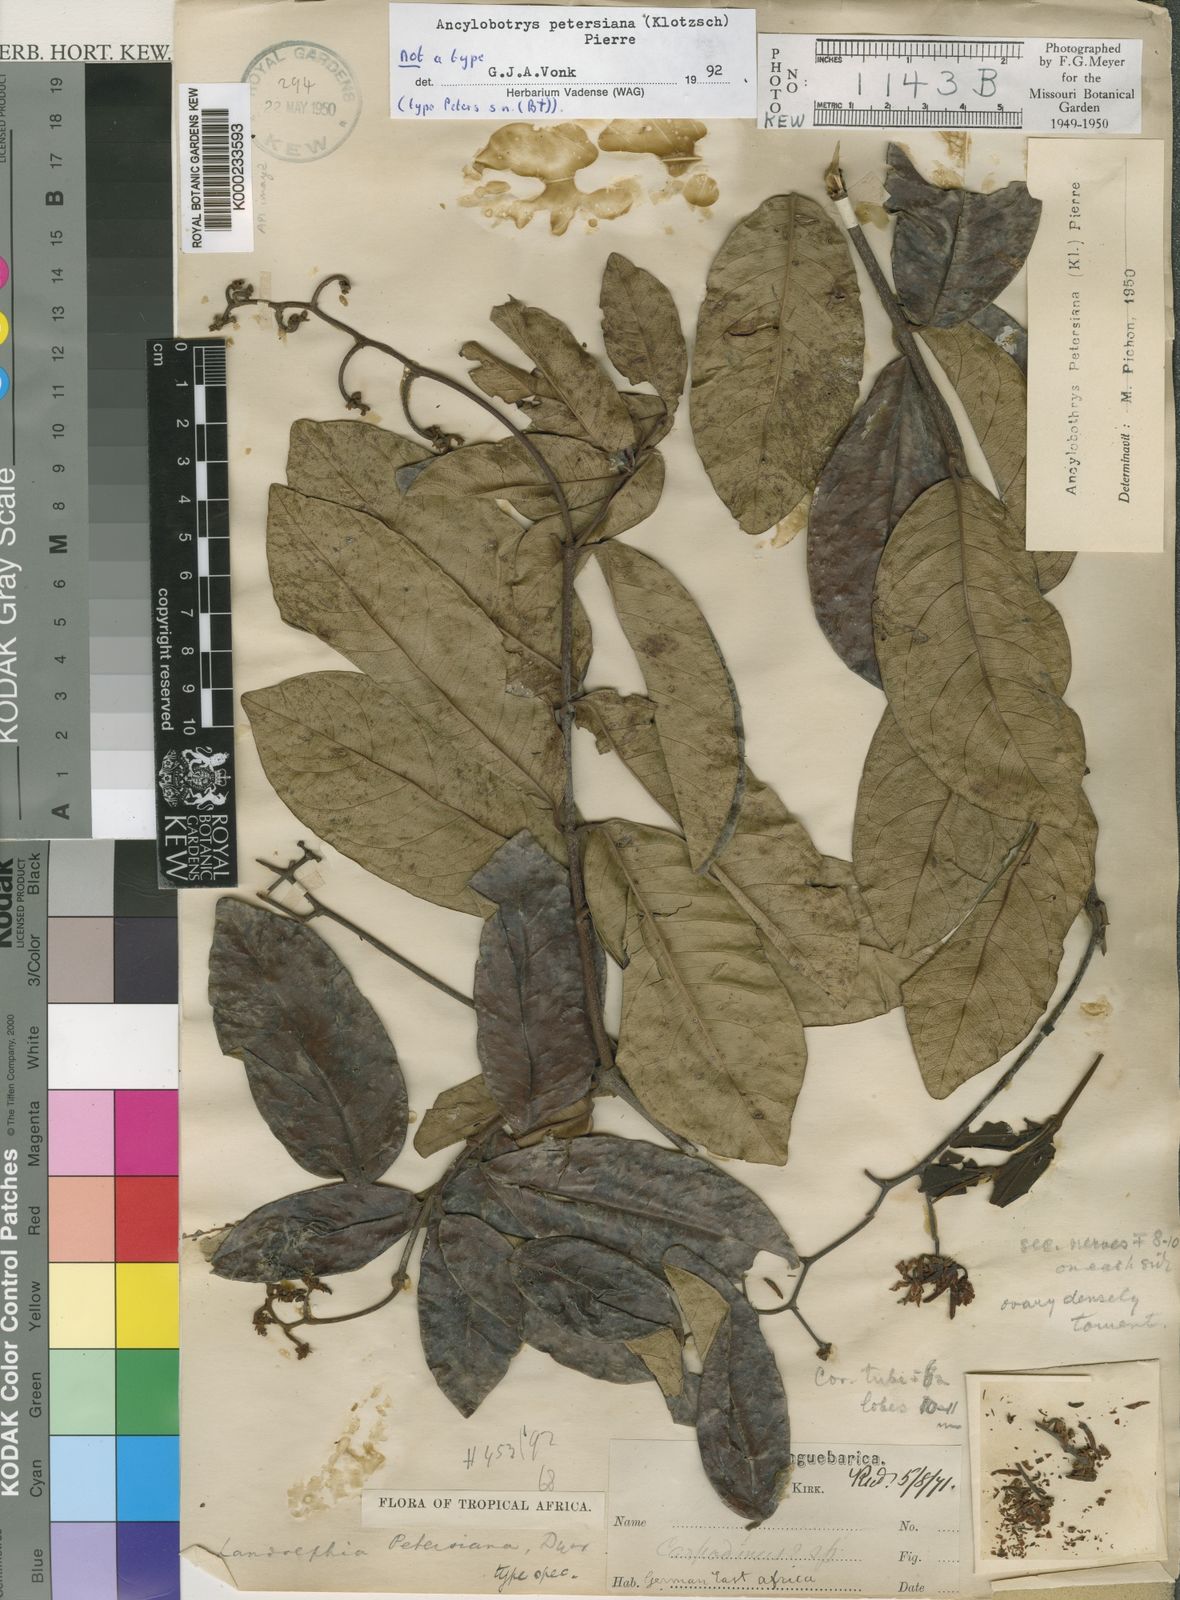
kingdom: Plantae
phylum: Tracheophyta
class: Magnoliopsida
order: Gentianales
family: Apocynaceae
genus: Ancylobothrys
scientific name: Ancylobothrys petersiana
